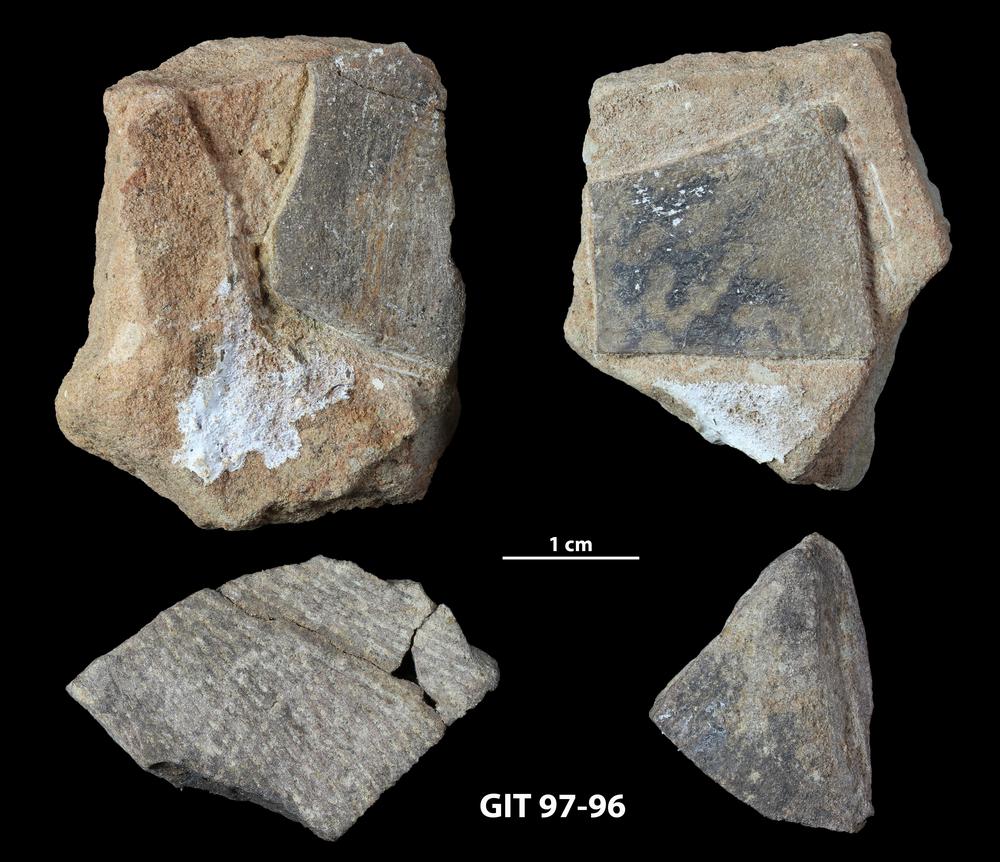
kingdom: Animalia
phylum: Chordata
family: Holonematidae
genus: Holonema
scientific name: Holonema
